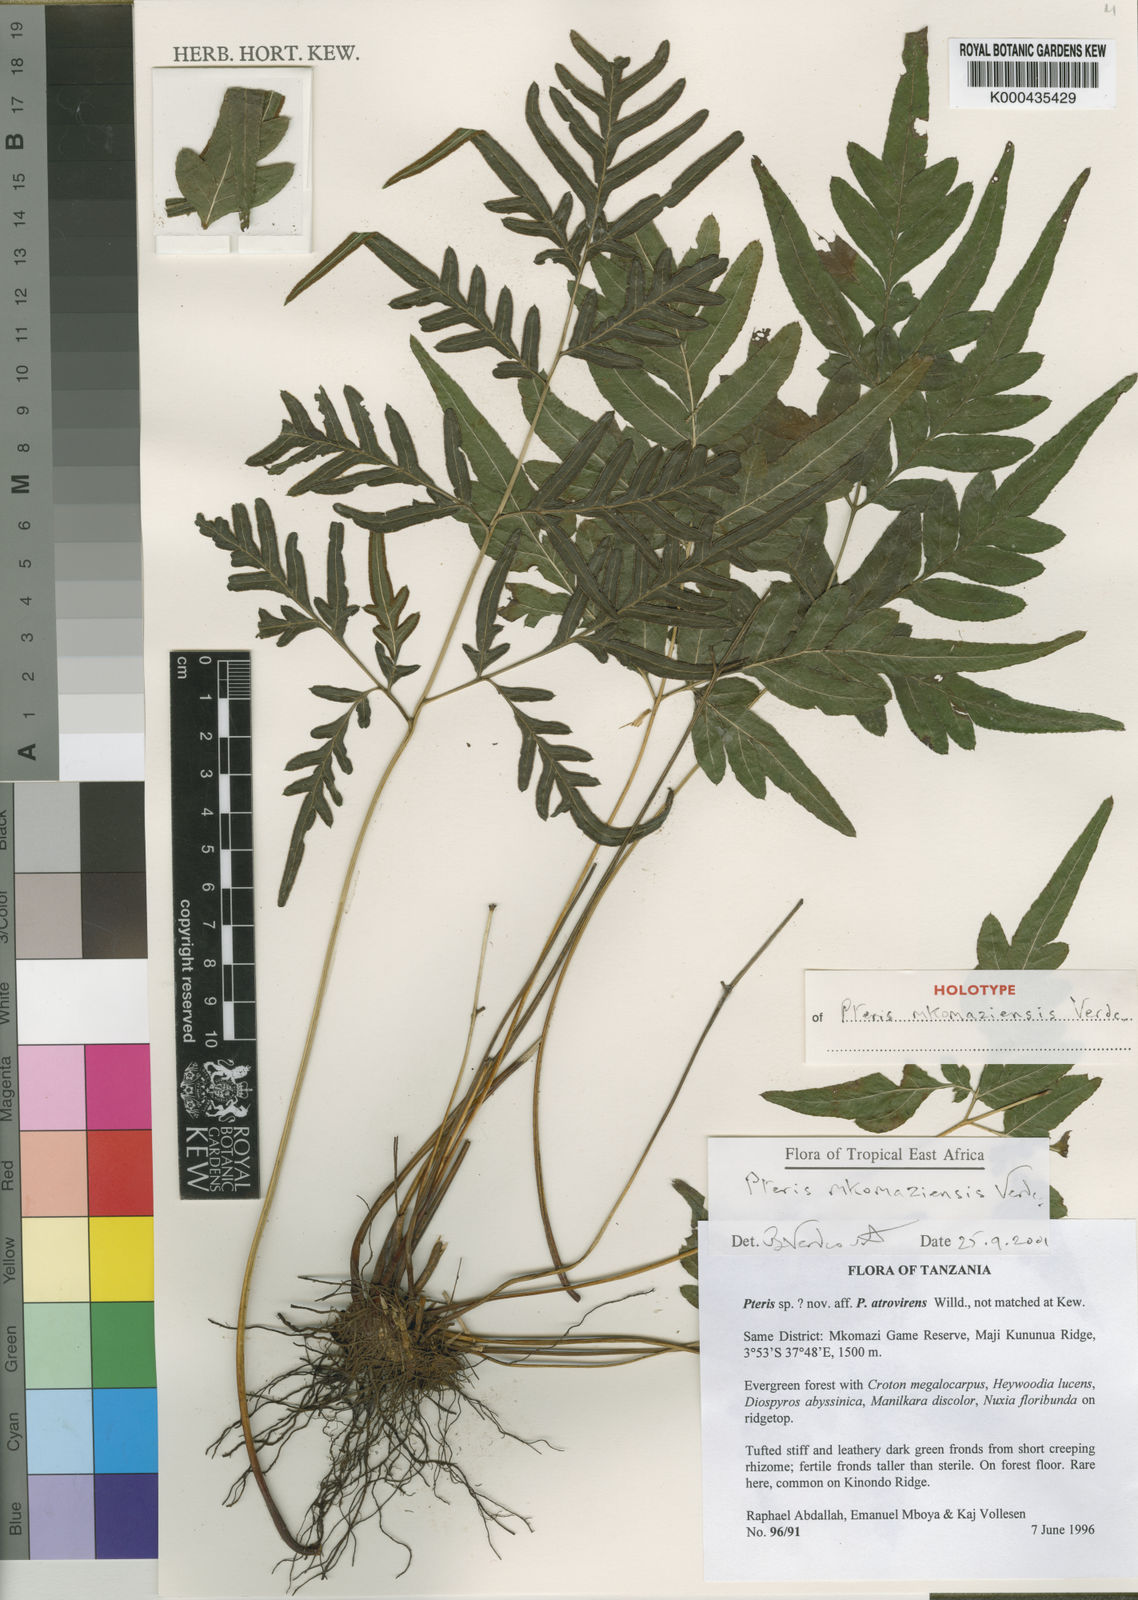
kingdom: Plantae
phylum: Tracheophyta
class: Polypodiopsida
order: Polypodiales
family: Pteridaceae
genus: Pteris
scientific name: Pteris mkomaziensis
